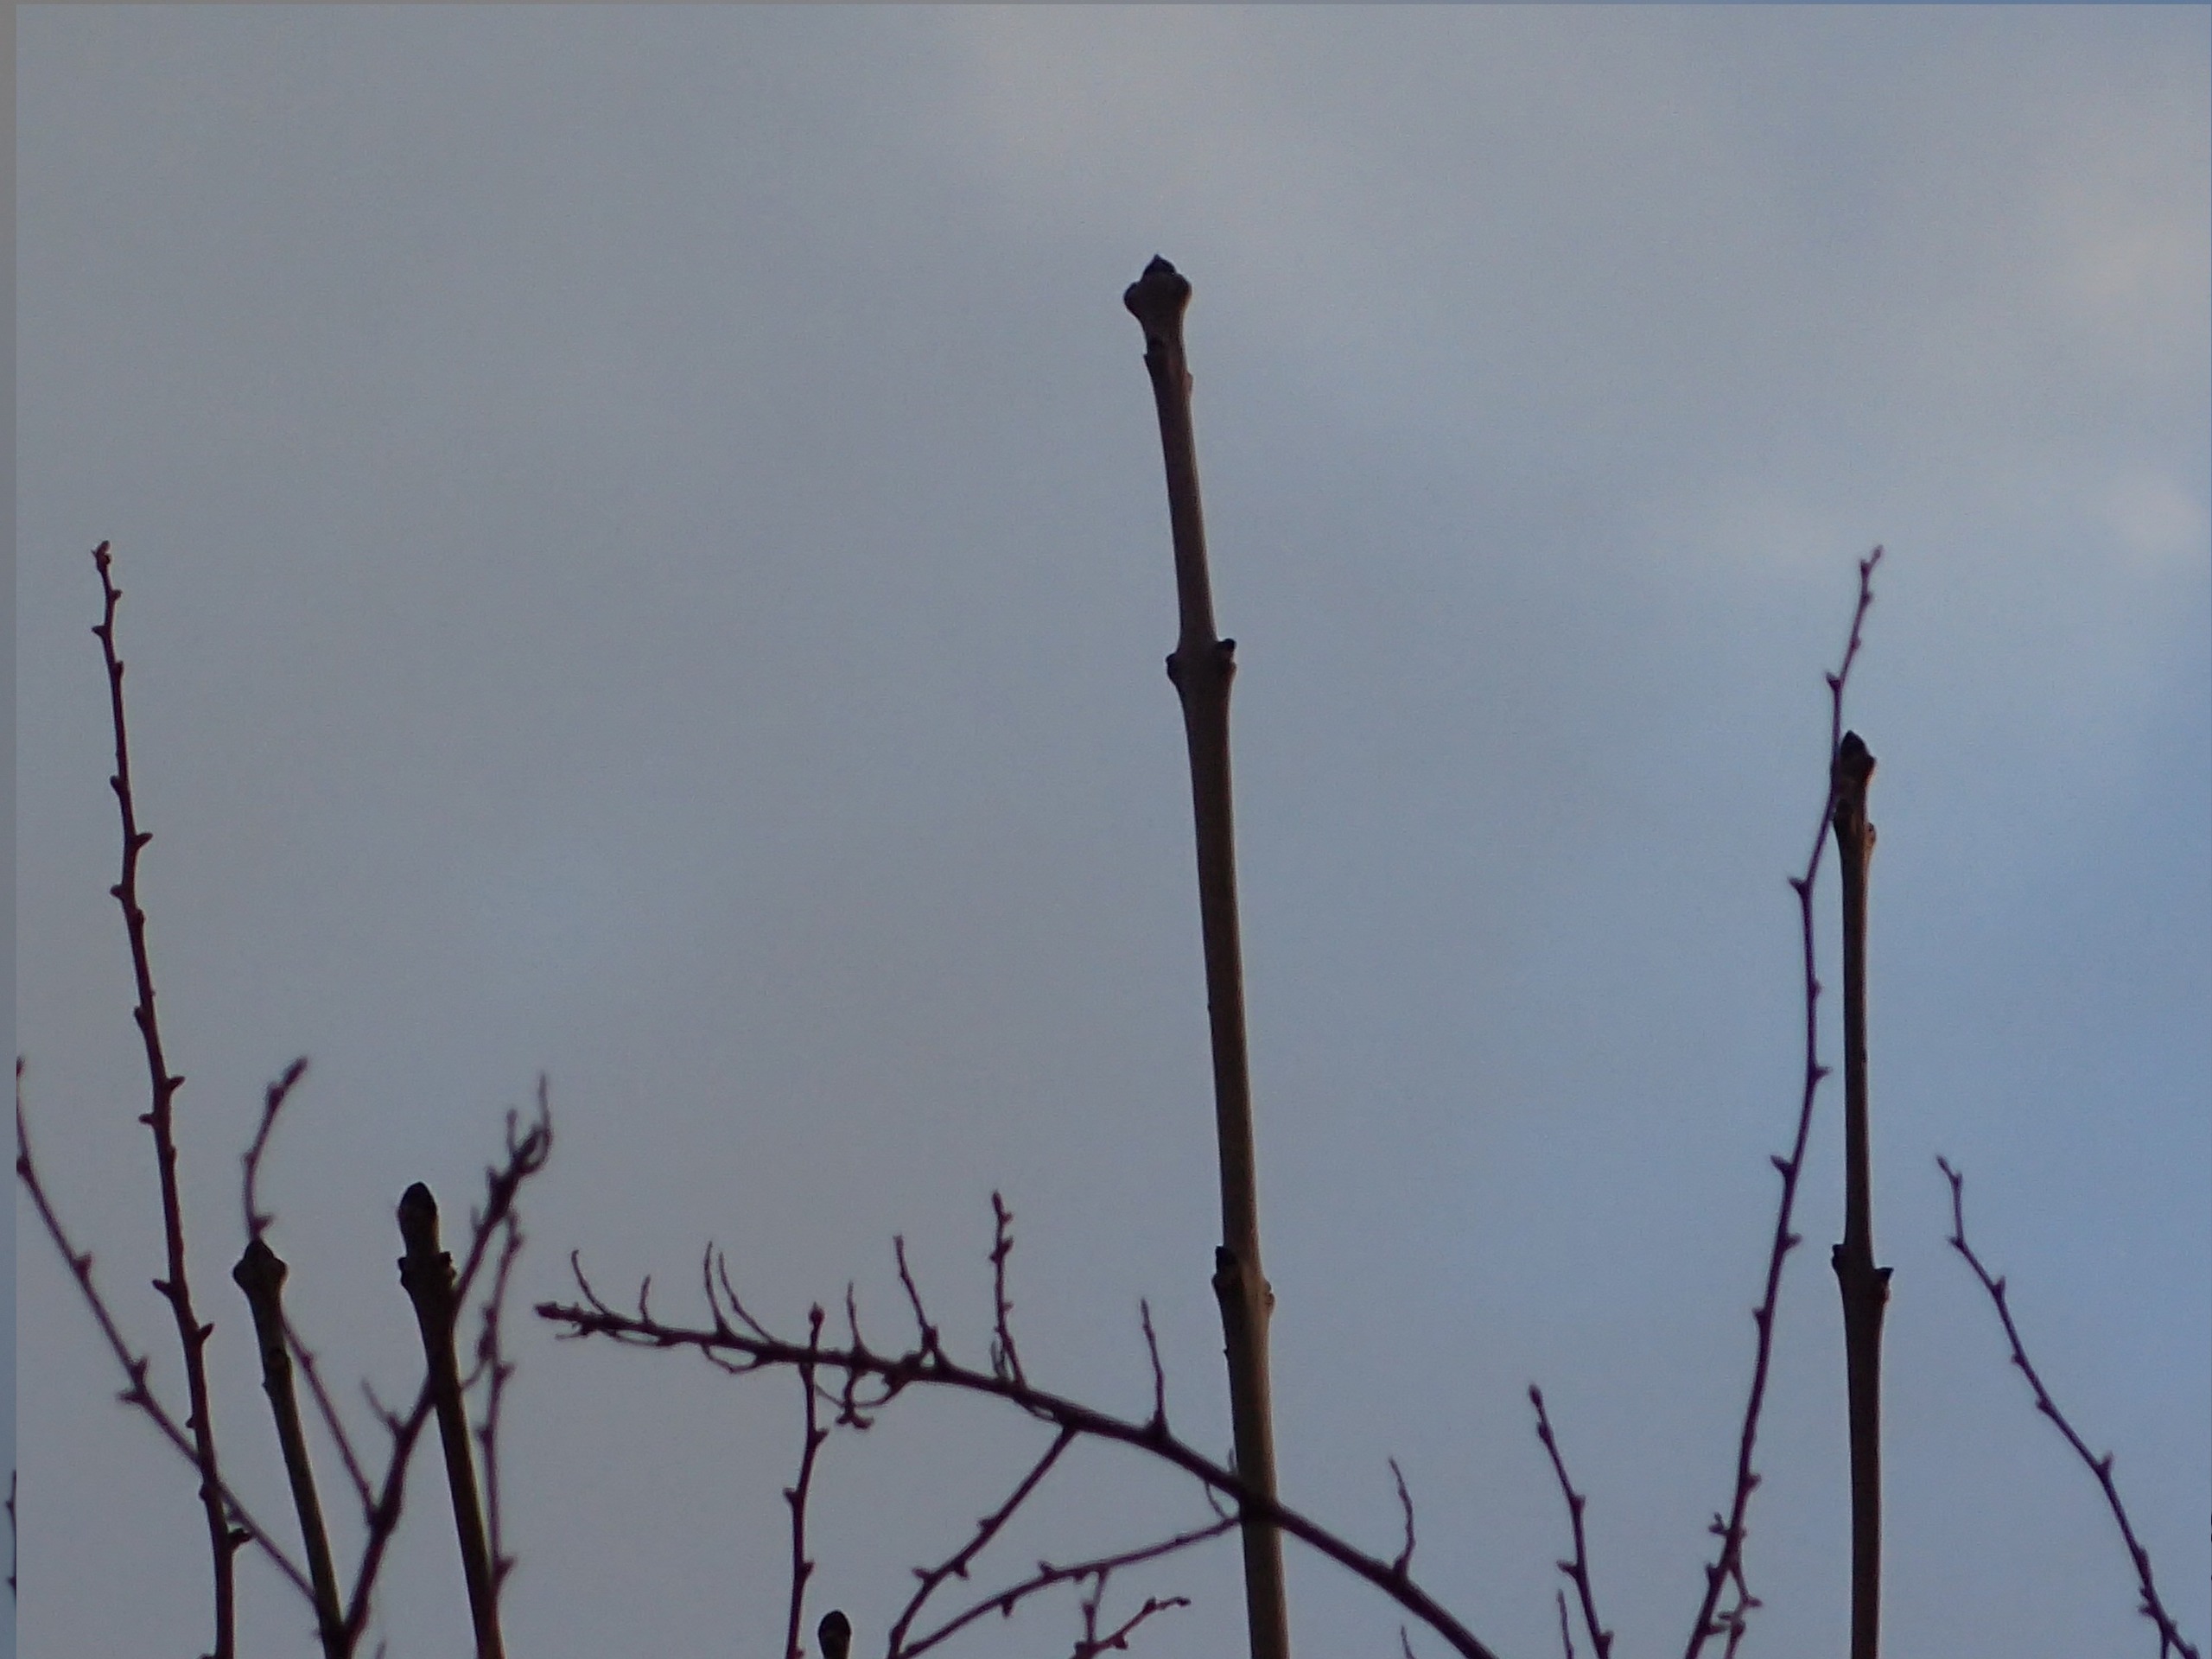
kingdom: Plantae
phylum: Tracheophyta
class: Magnoliopsida
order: Lamiales
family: Oleaceae
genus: Fraxinus
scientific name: Fraxinus excelsior
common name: Ask
